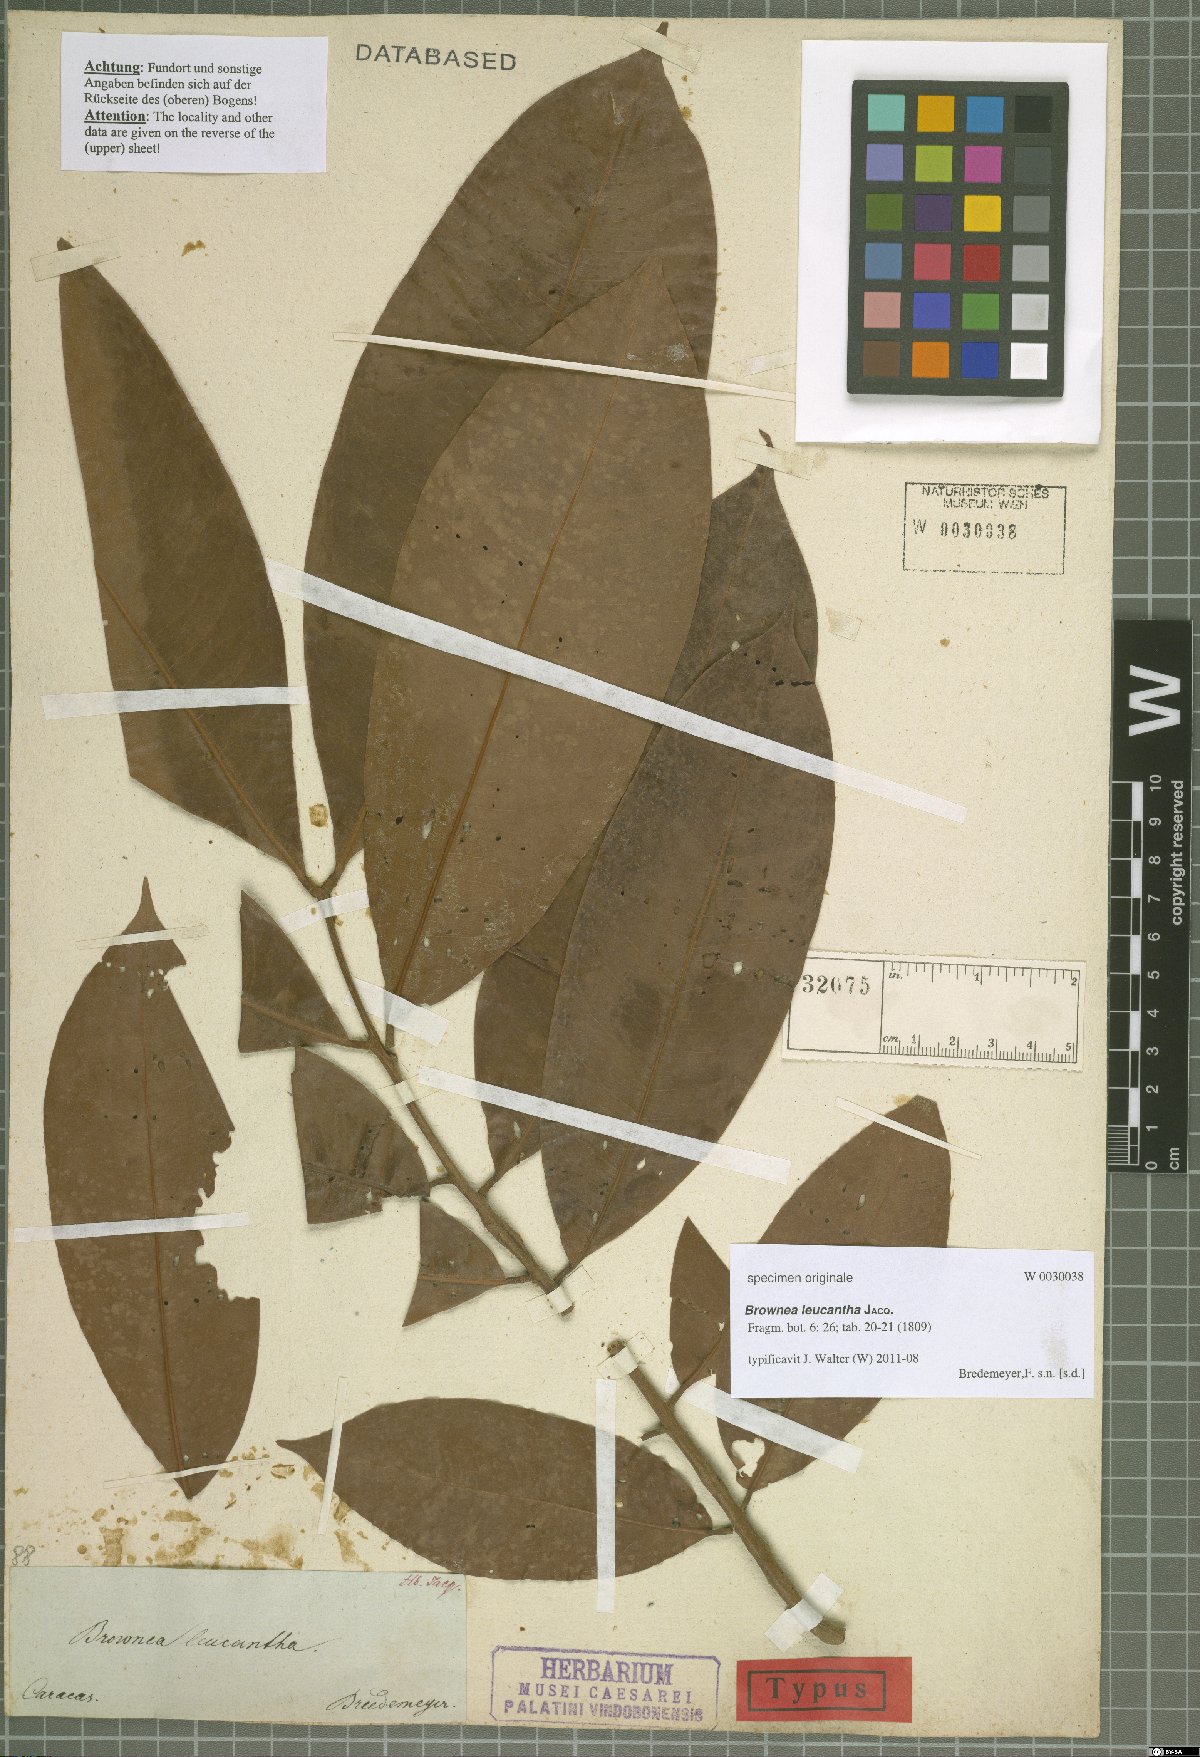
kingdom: Plantae
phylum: Tracheophyta
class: Magnoliopsida
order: Fabales
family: Fabaceae
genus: Brownea
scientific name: Brownea leucantha
